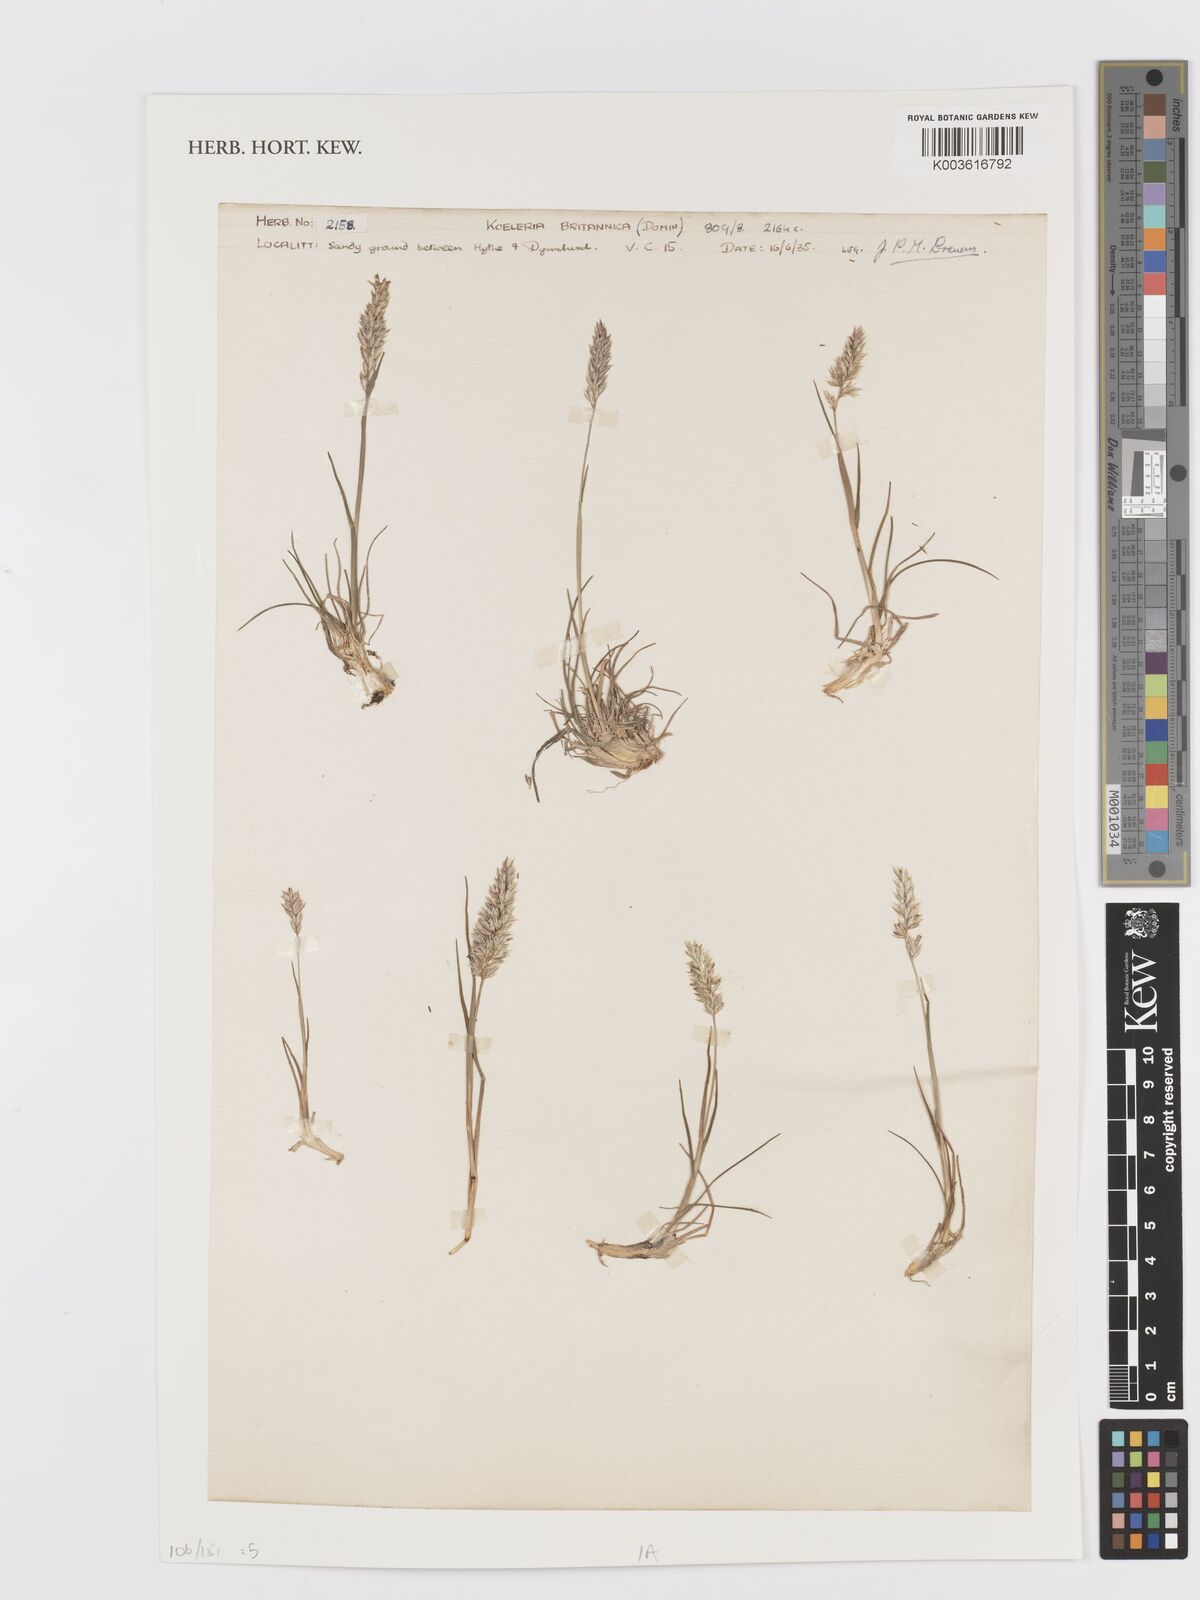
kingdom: Plantae
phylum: Tracheophyta
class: Liliopsida
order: Poales
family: Poaceae
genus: Koeleria
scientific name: Koeleria macrantha
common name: Crested hair-grass
